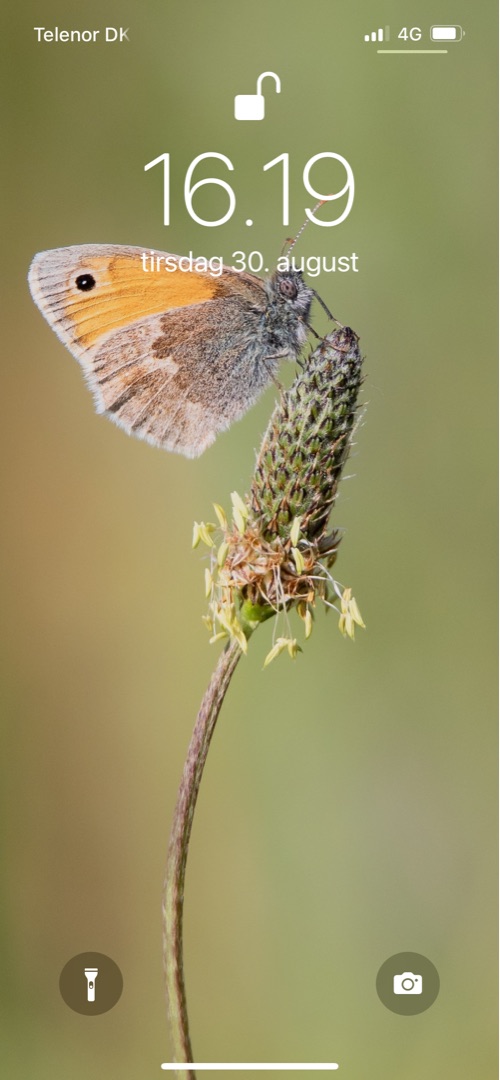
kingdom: Animalia
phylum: Arthropoda
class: Insecta
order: Lepidoptera
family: Nymphalidae
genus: Coenonympha
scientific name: Coenonympha pamphilus
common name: Okkergul randøje
